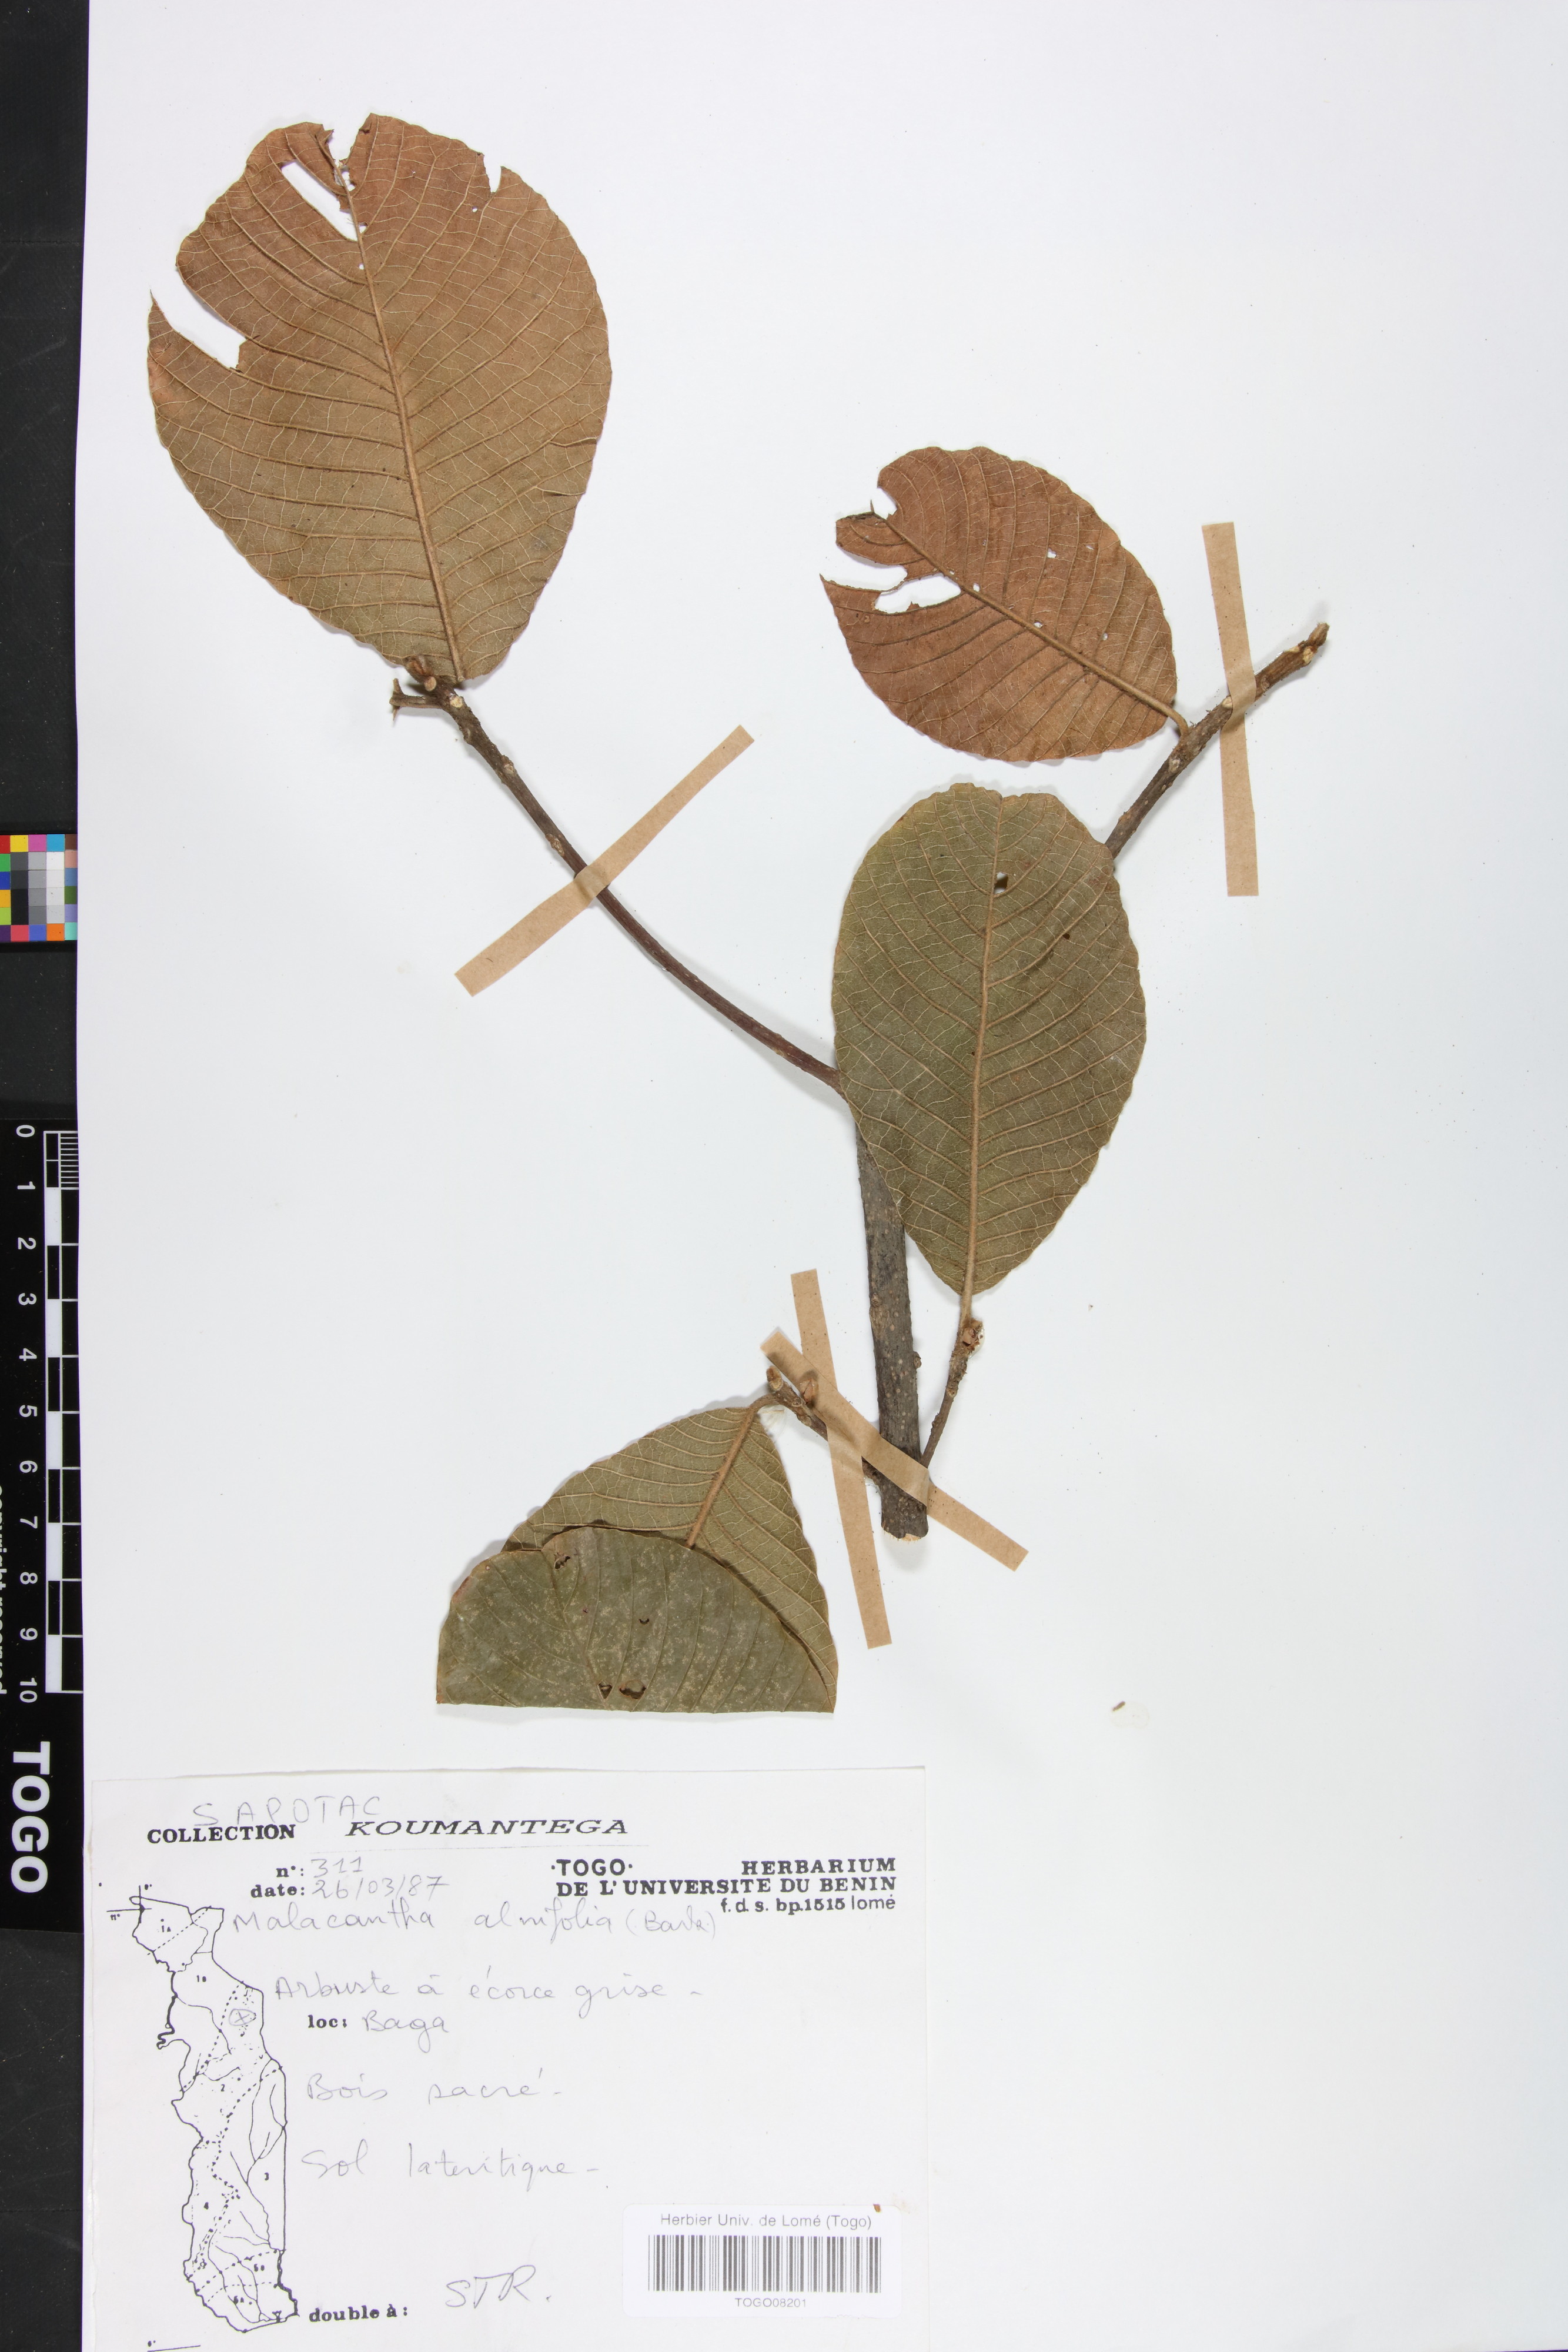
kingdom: Plantae
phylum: Tracheophyta
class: Magnoliopsida
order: Ericales
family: Sapotaceae
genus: Malacantha
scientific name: Malacantha alnifolia
